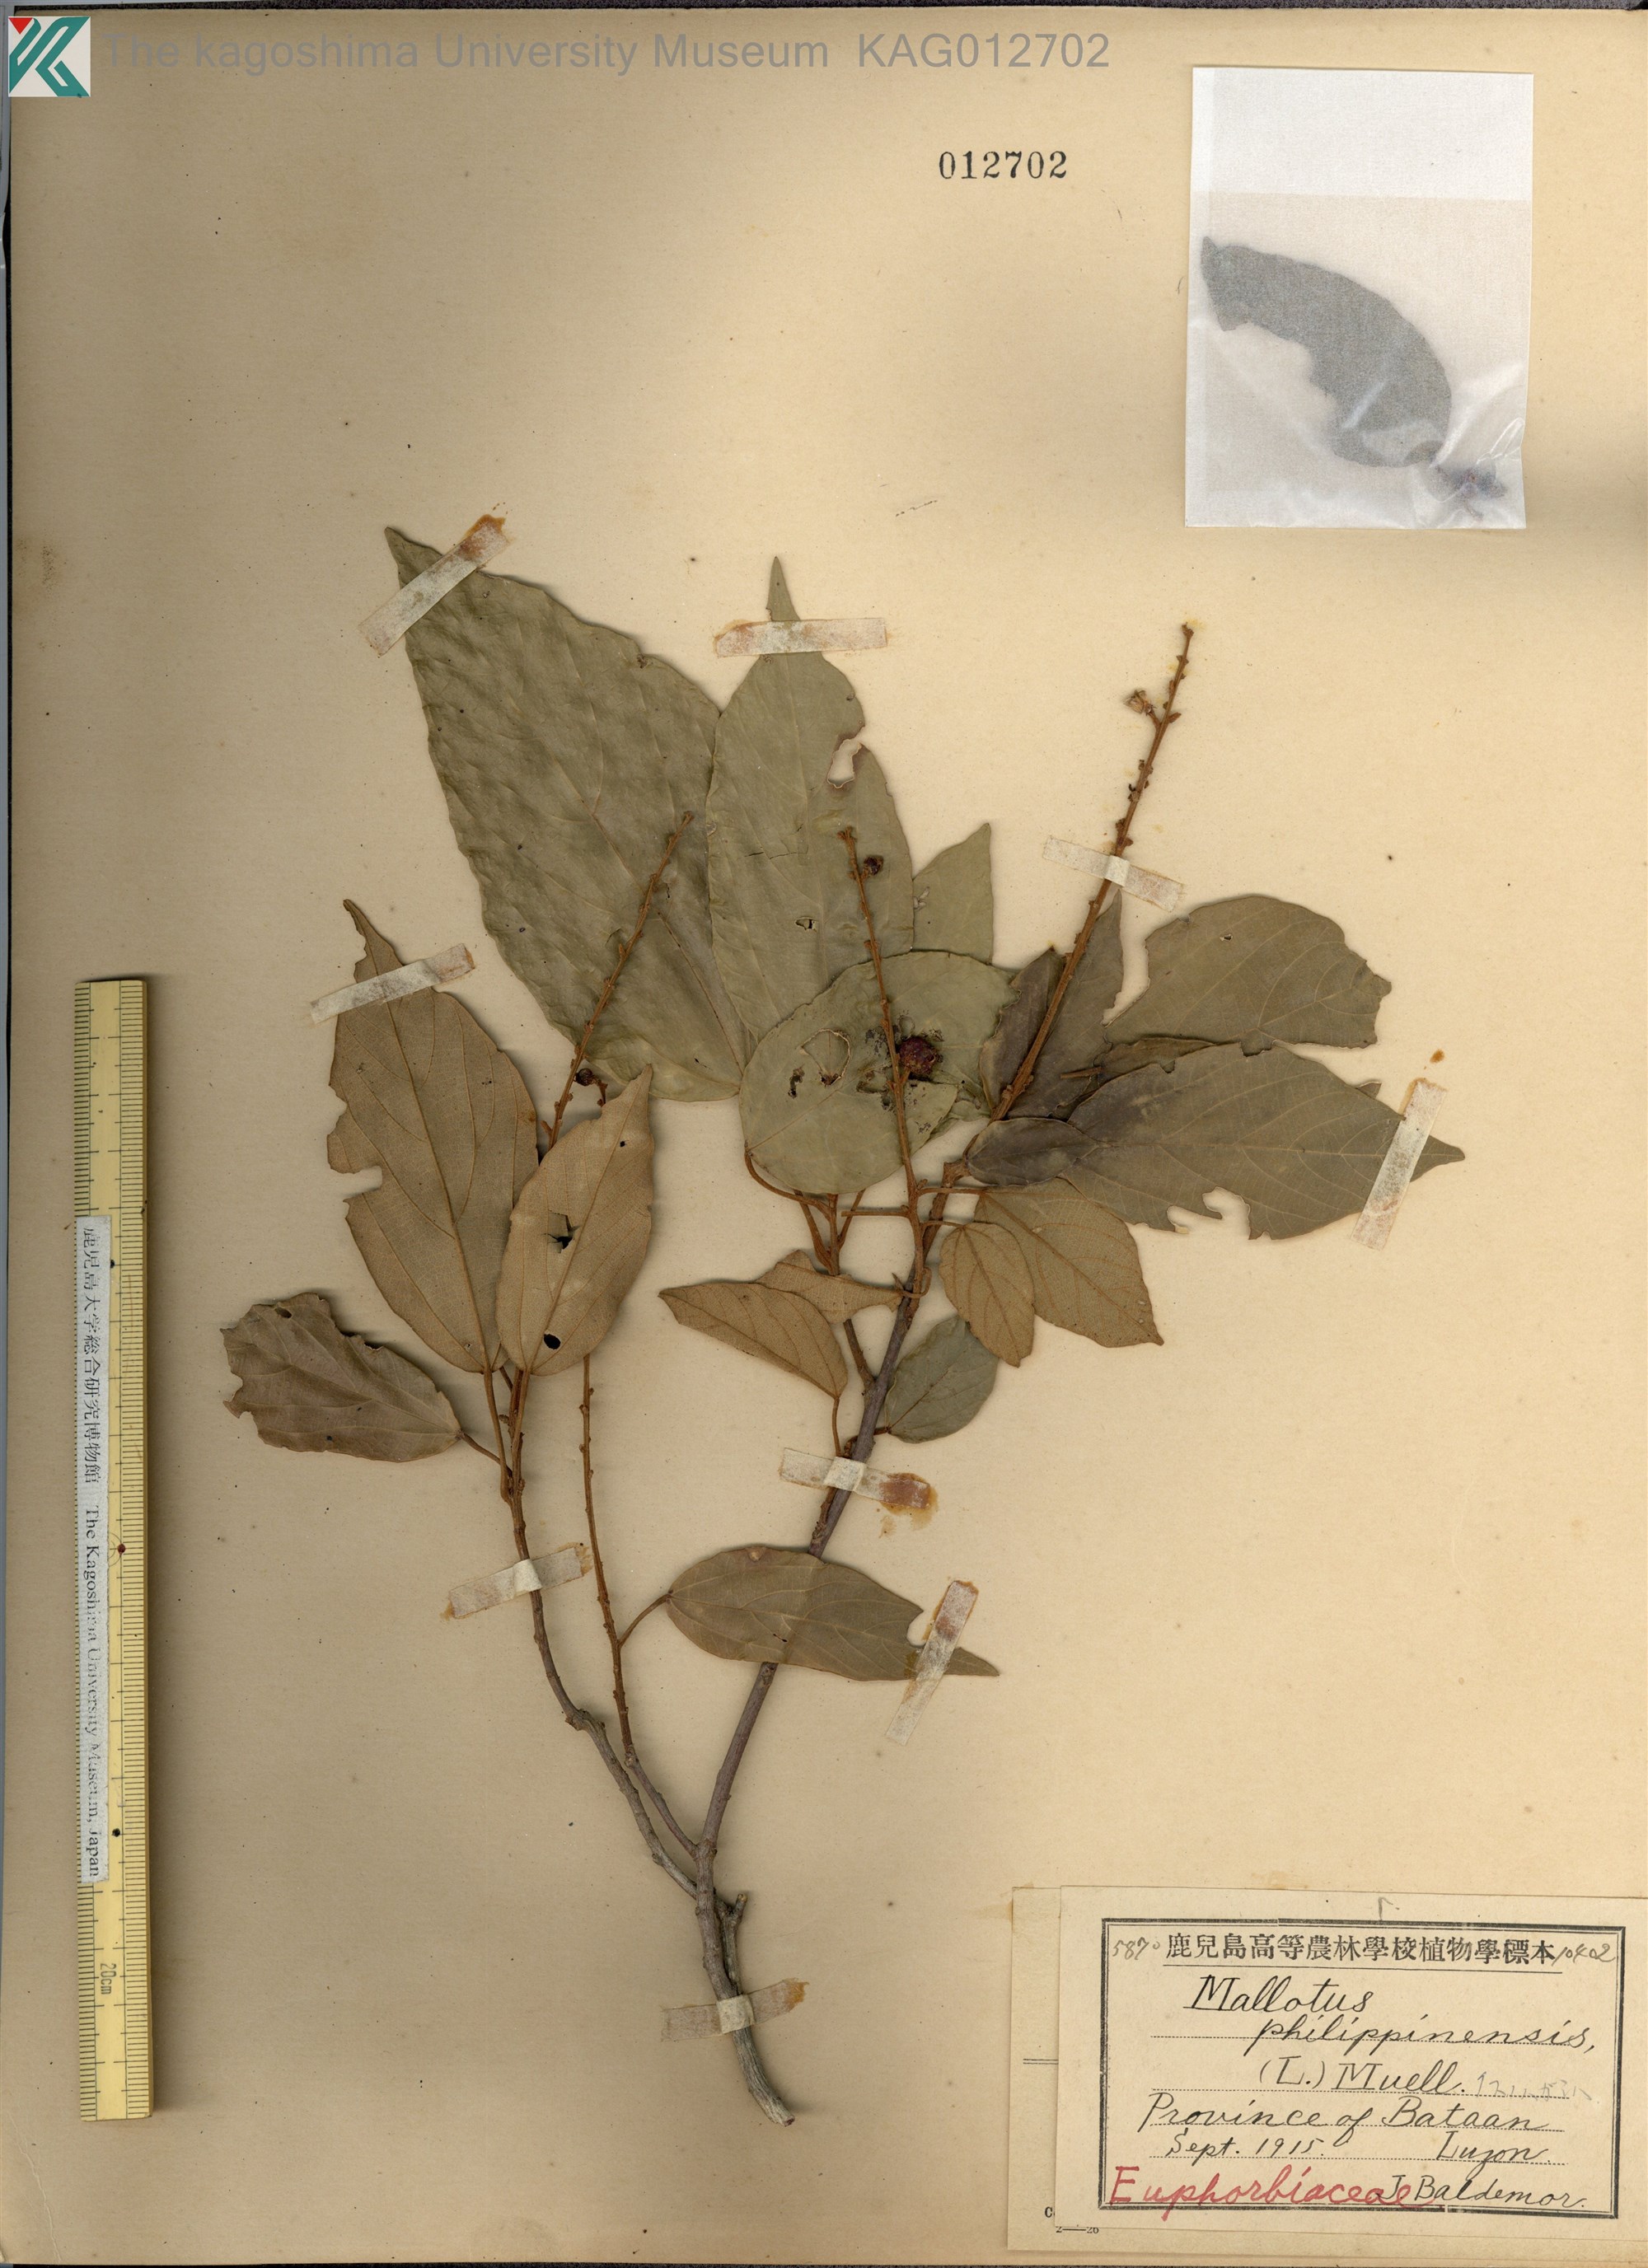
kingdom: Plantae
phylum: Tracheophyta
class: Magnoliopsida
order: Malpighiales
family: Euphorbiaceae
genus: Mallotus
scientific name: Mallotus philippensis
